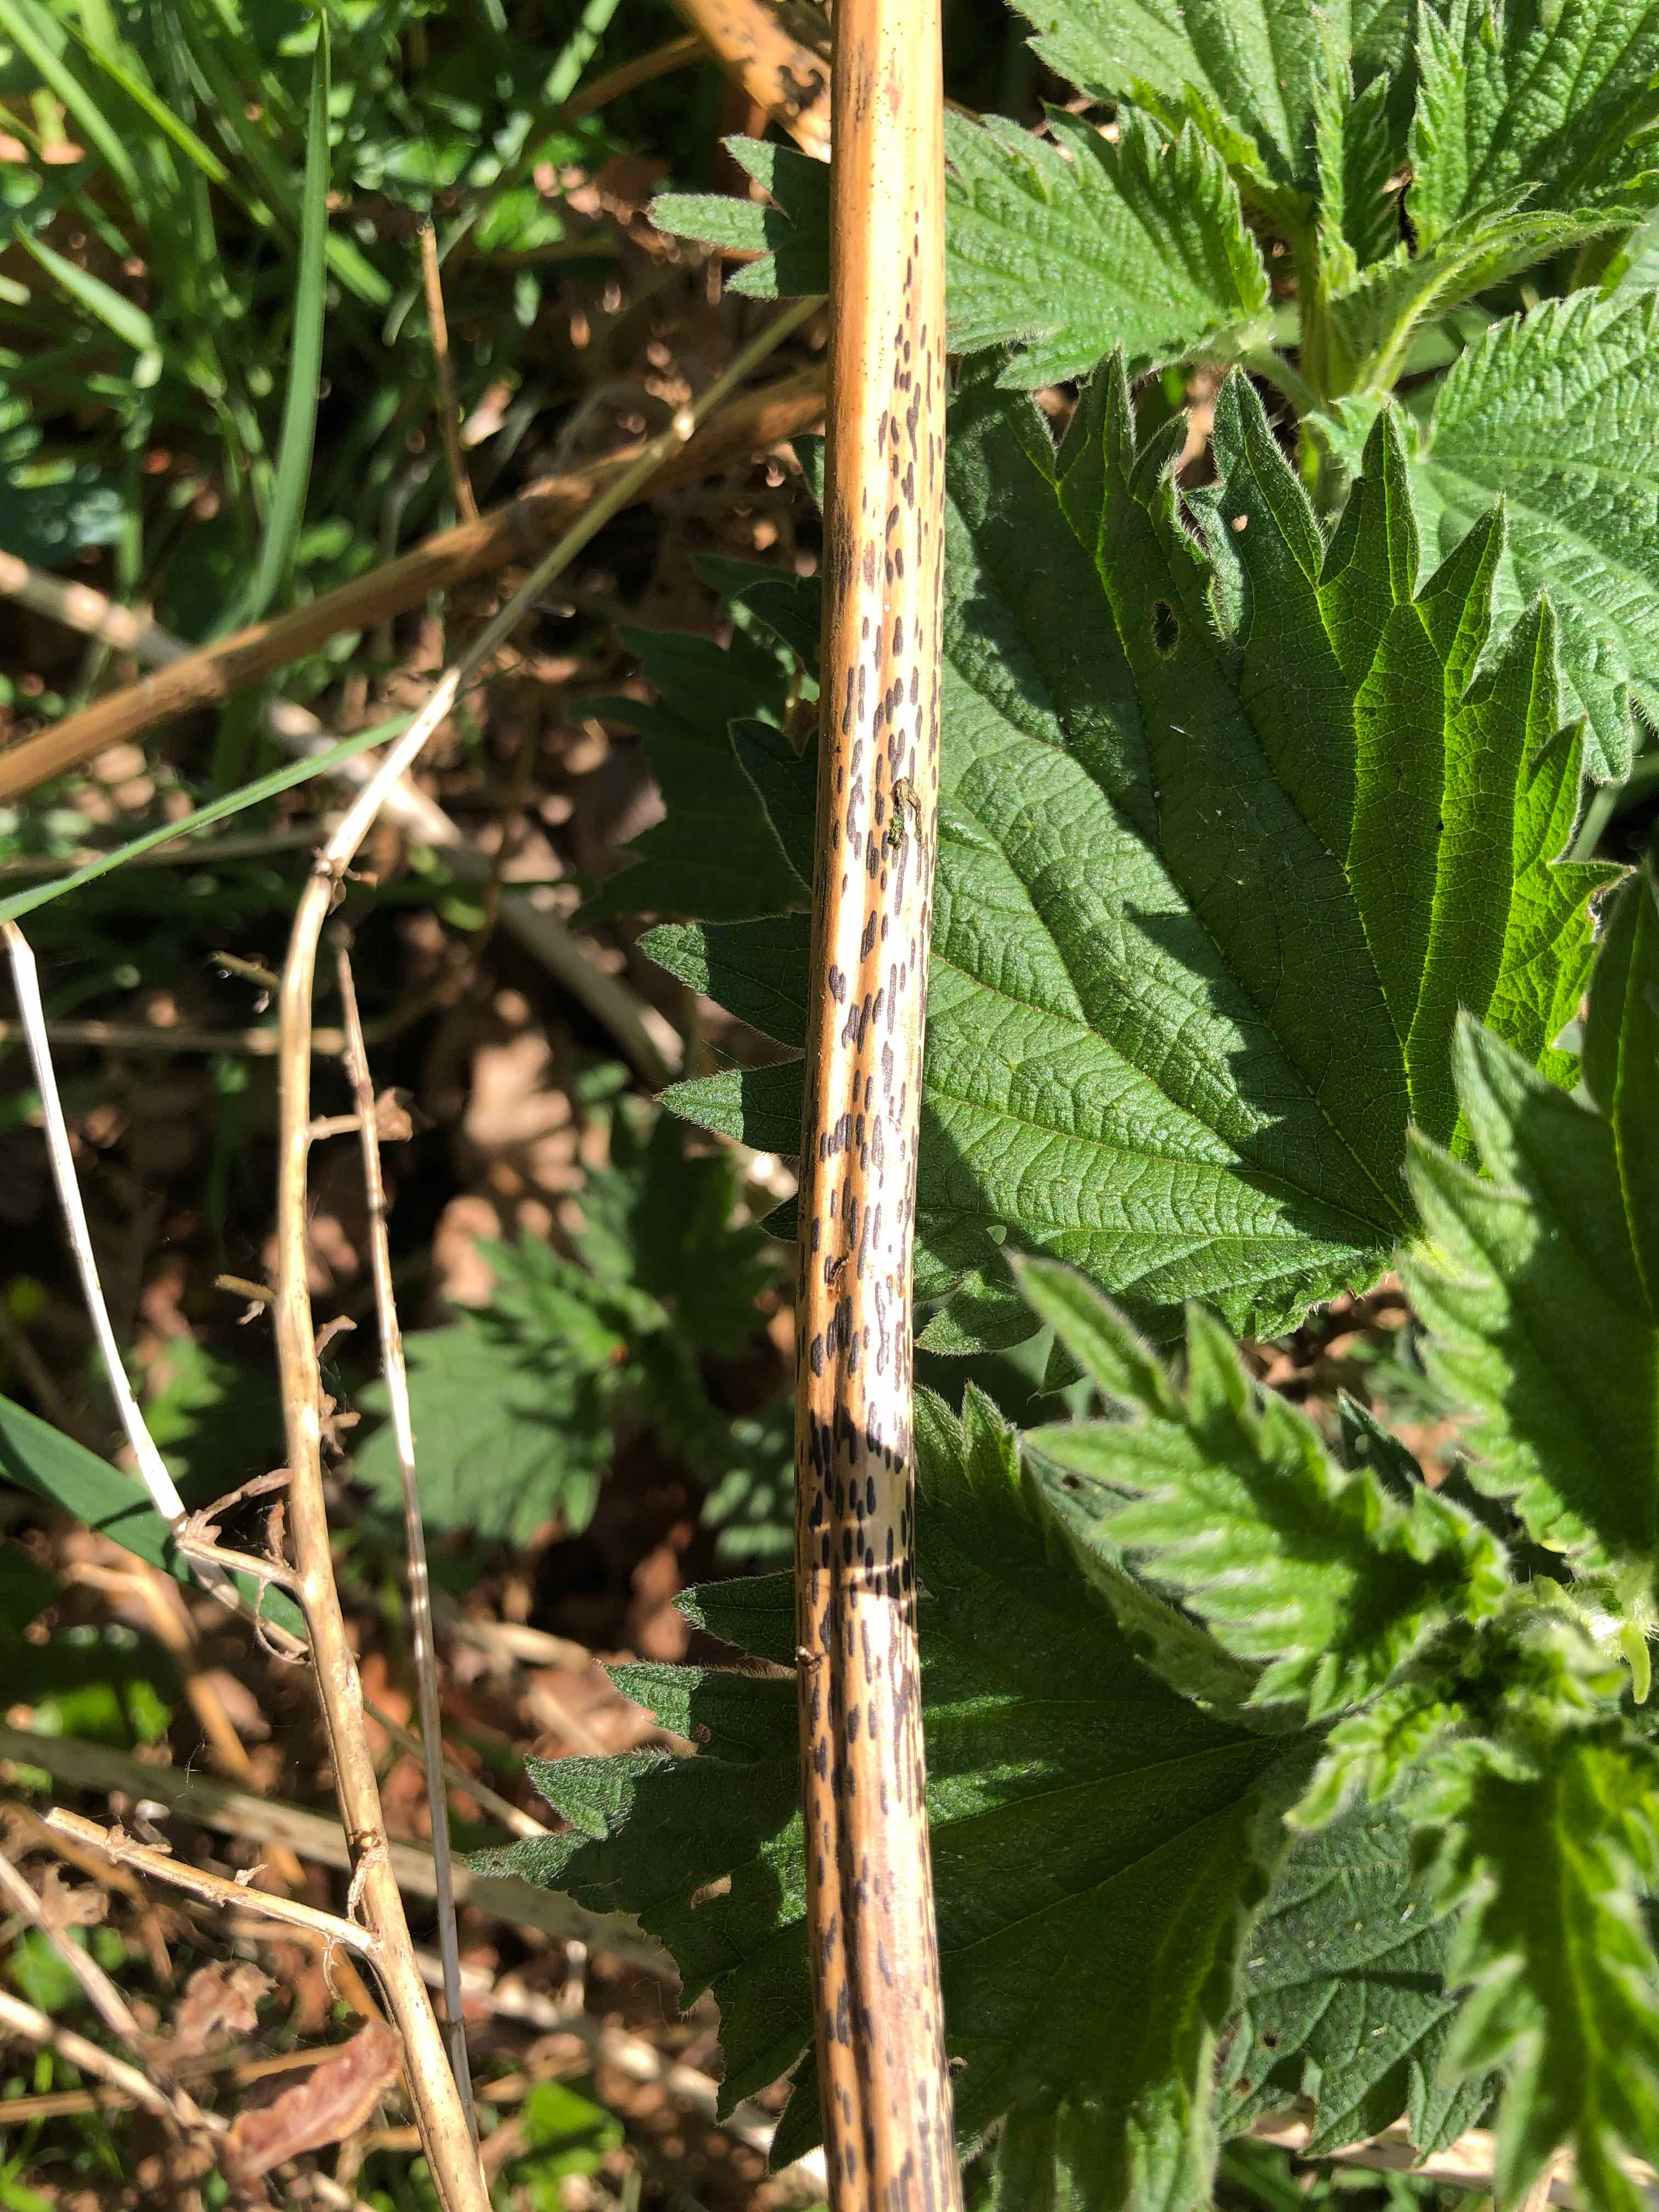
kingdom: Fungi
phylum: Ascomycota
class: Dothideomycetes
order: Pleosporales
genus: Rhopographus
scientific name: Rhopographus filicinus
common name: Bracken map
